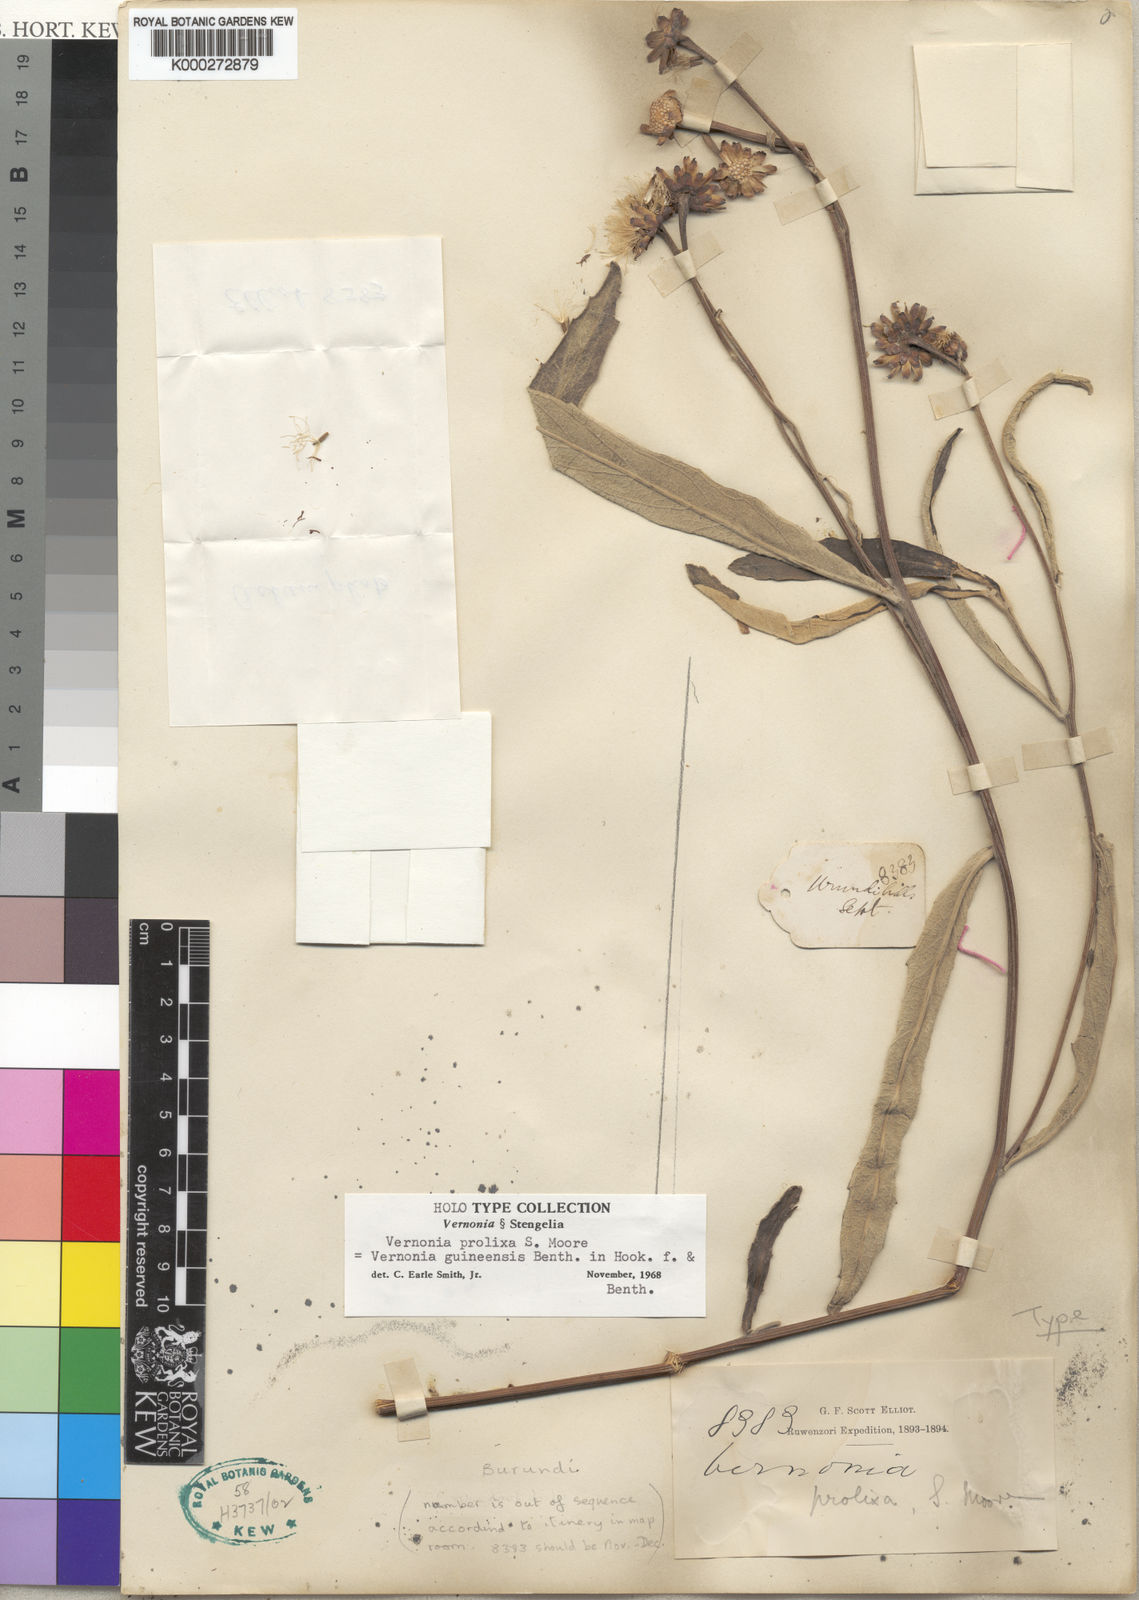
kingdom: Plantae
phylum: Tracheophyta
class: Magnoliopsida
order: Asterales
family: Asteraceae
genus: Baccharoides
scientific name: Baccharoides prolixa
